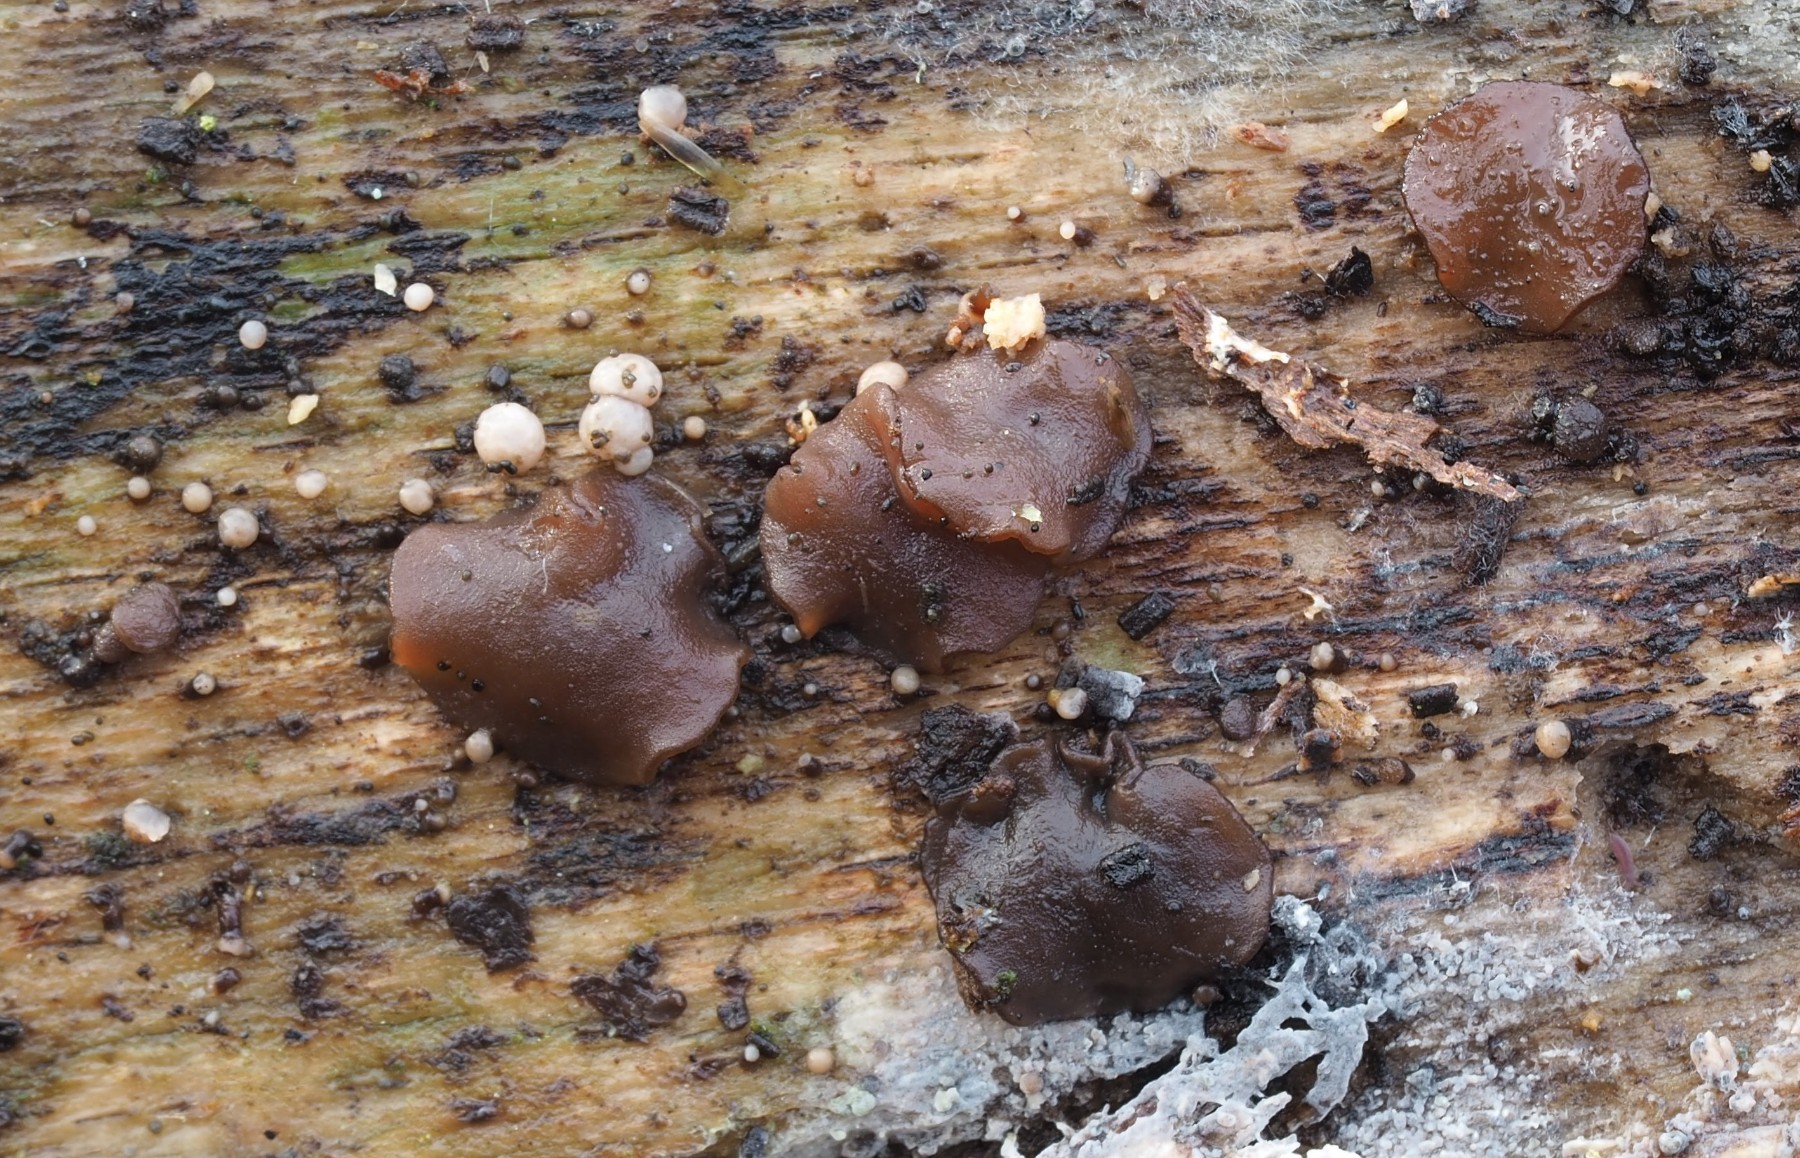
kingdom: Fungi
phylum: Ascomycota
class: Leotiomycetes
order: Helotiales
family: Gelatinodiscaceae
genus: Ascocoryne
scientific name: Ascocoryne albida
